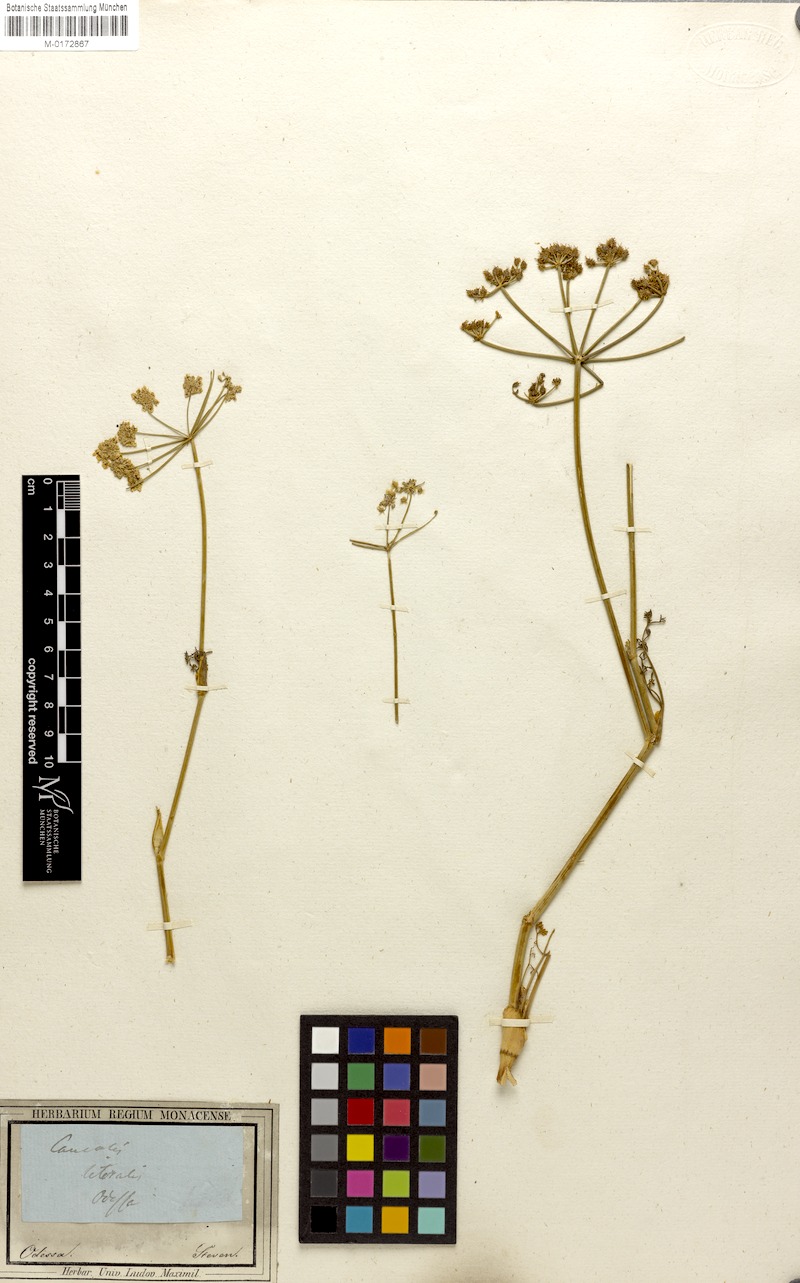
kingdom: Plantae
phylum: Tracheophyta
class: Magnoliopsida
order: Apiales
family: Apiaceae
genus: Astrodaucus
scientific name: Astrodaucus littoralis
